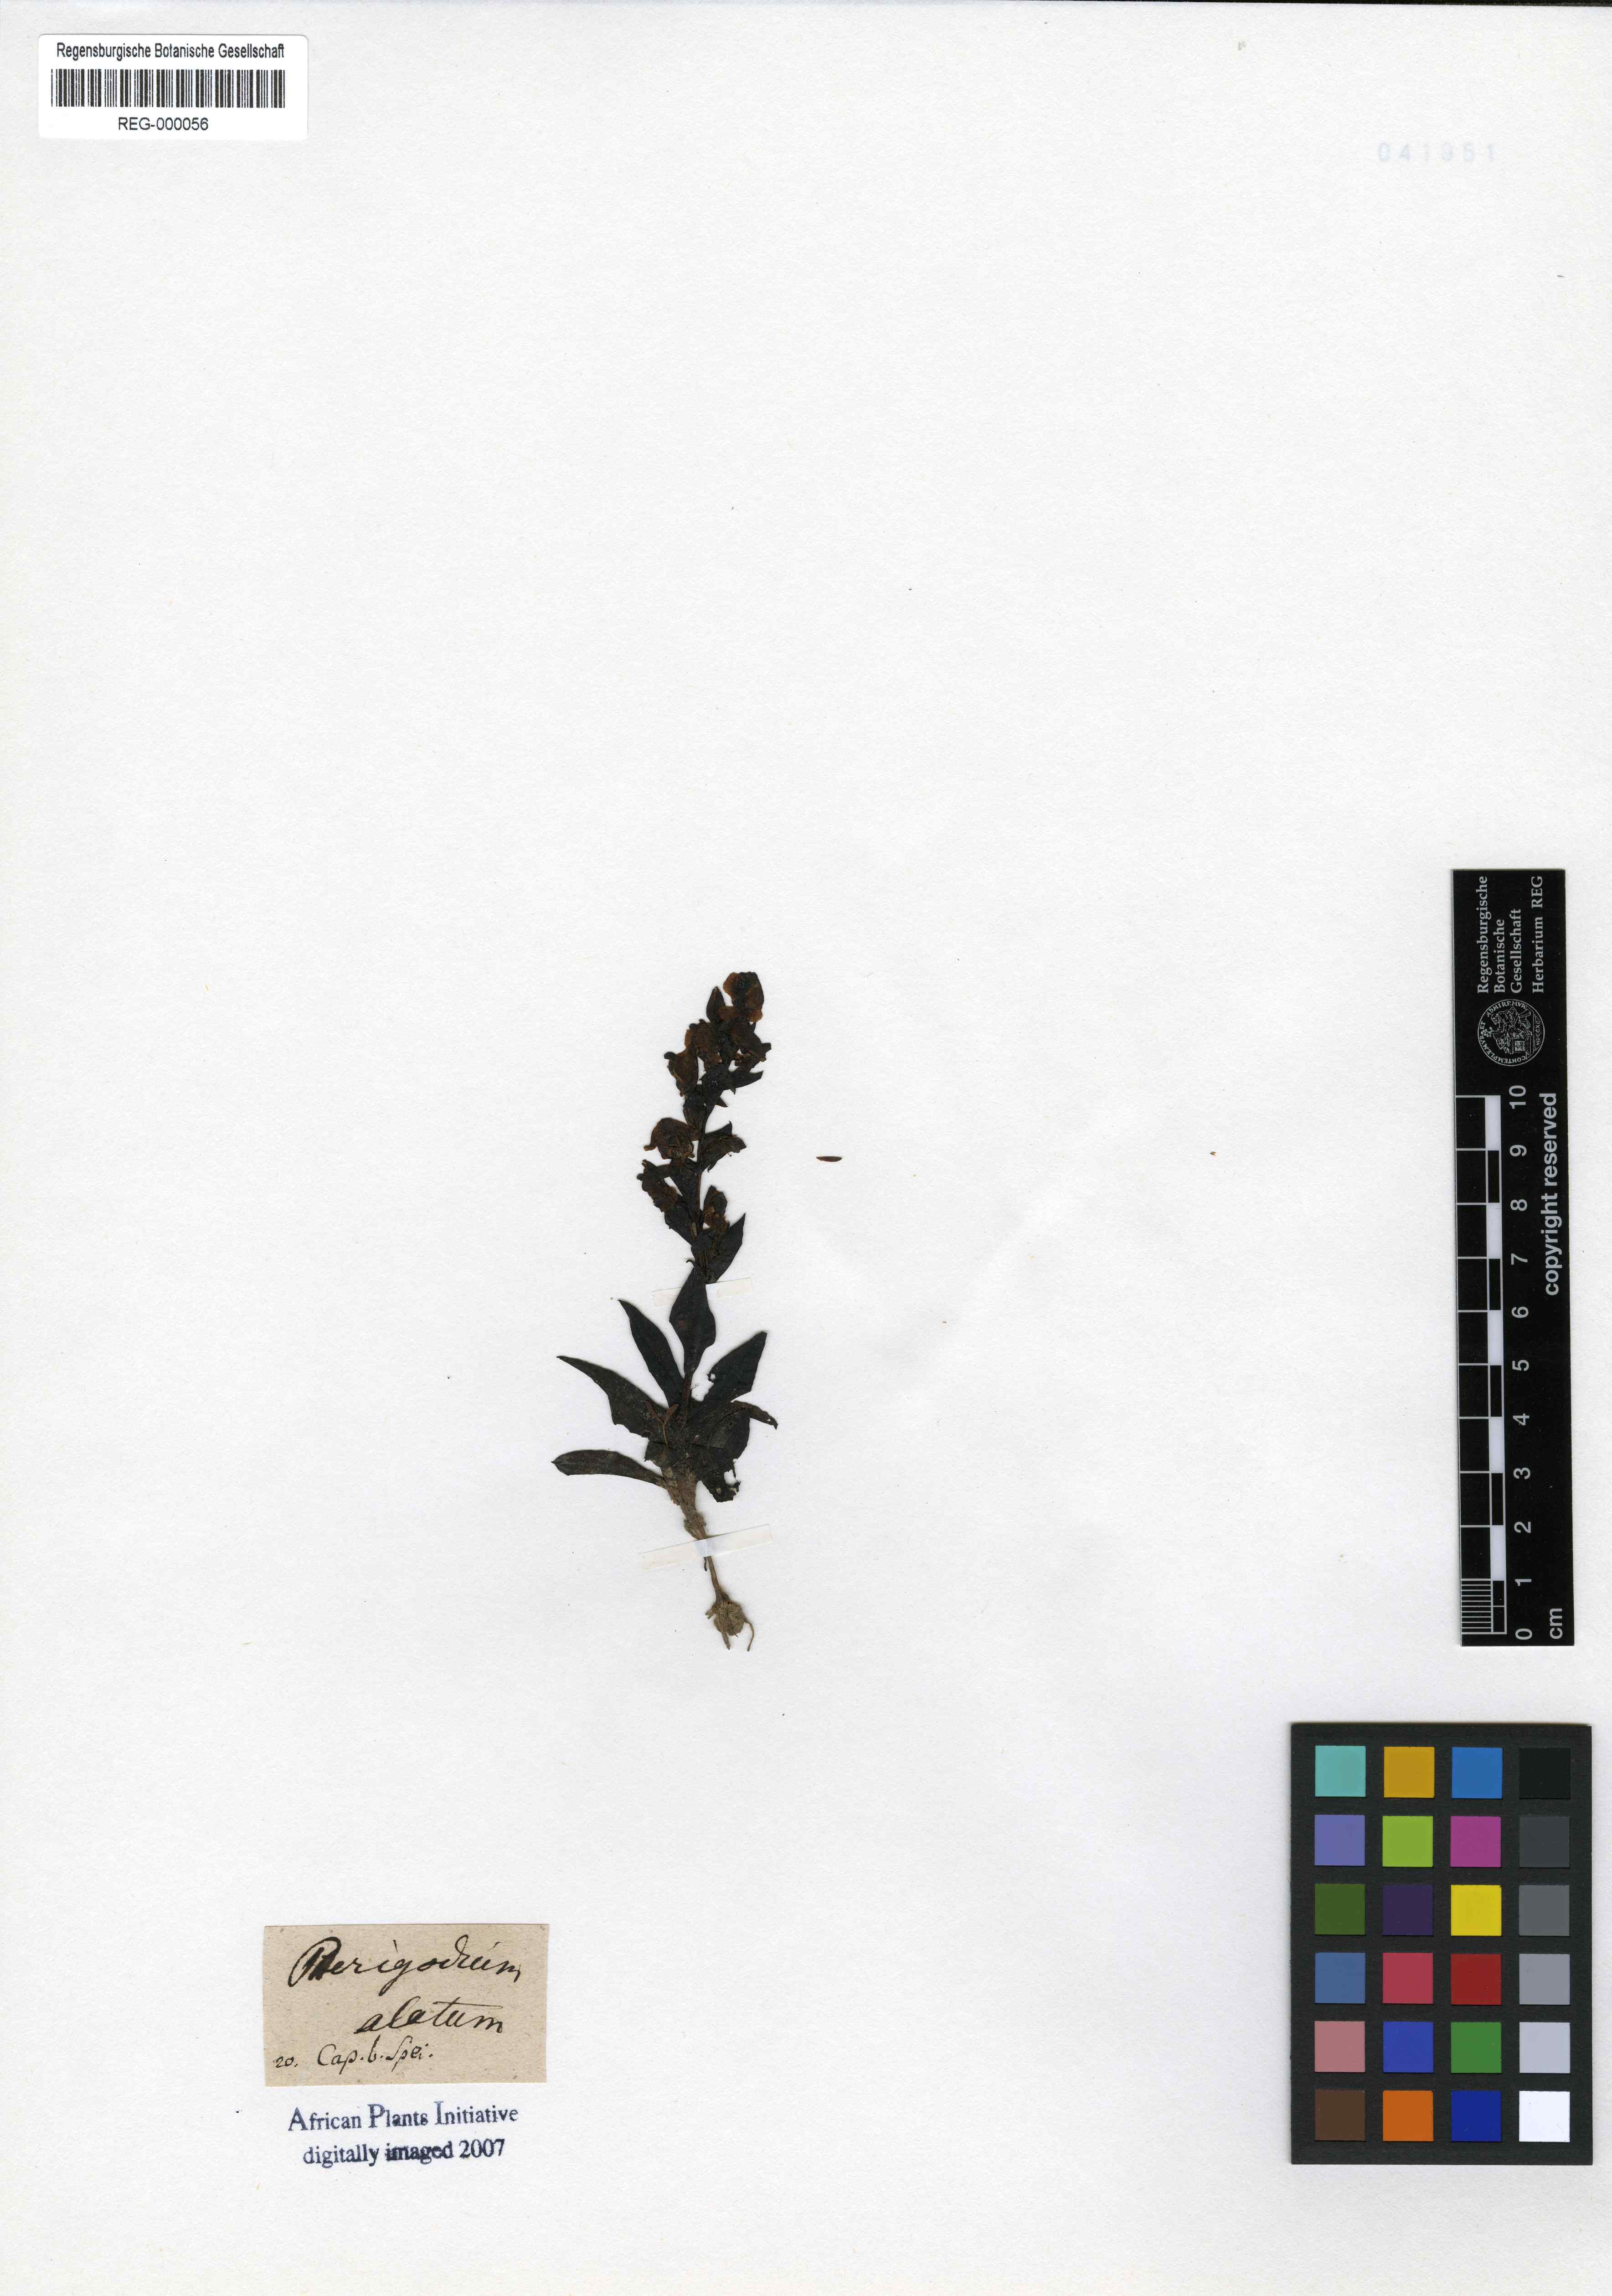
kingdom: Plantae
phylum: Tracheophyta
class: Liliopsida
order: Asparagales
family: Orchidaceae
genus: Pterygodium
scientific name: Pterygodium alatum
